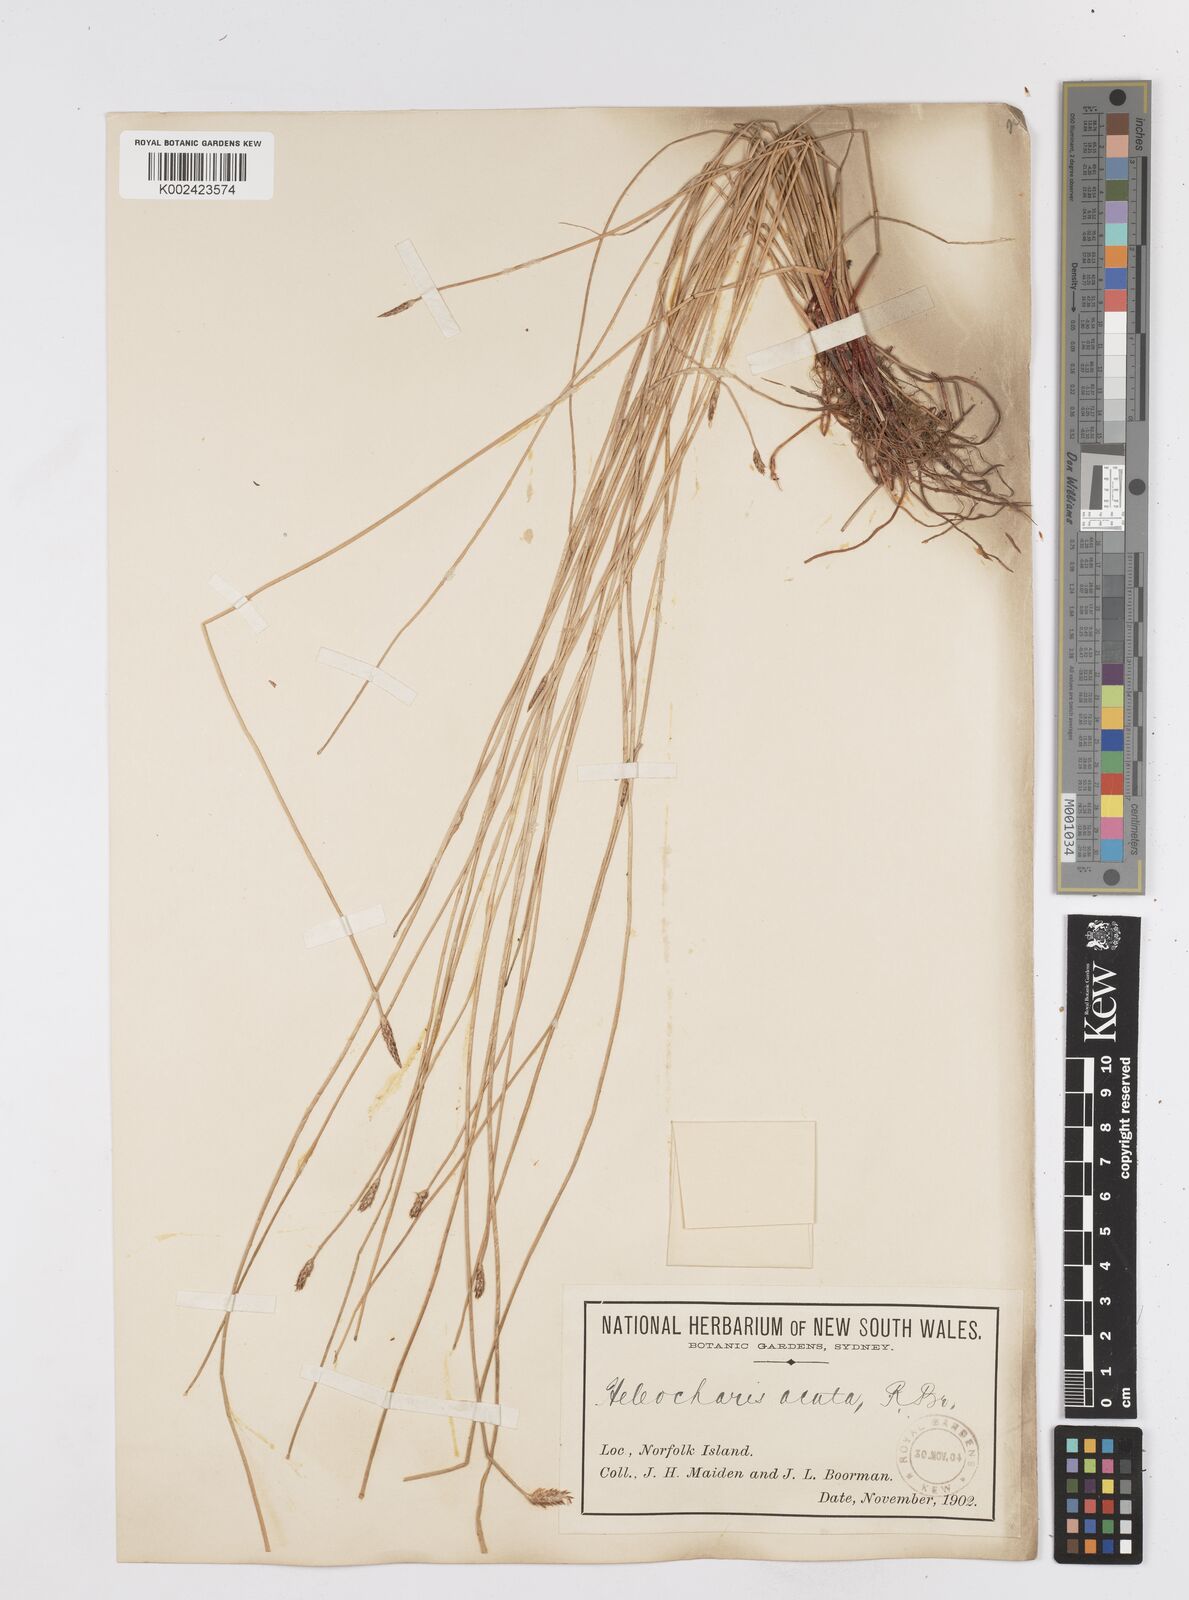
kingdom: Plantae
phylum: Tracheophyta
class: Liliopsida
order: Poales
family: Cyperaceae
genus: Eleocharis
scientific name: Eleocharis acuta
